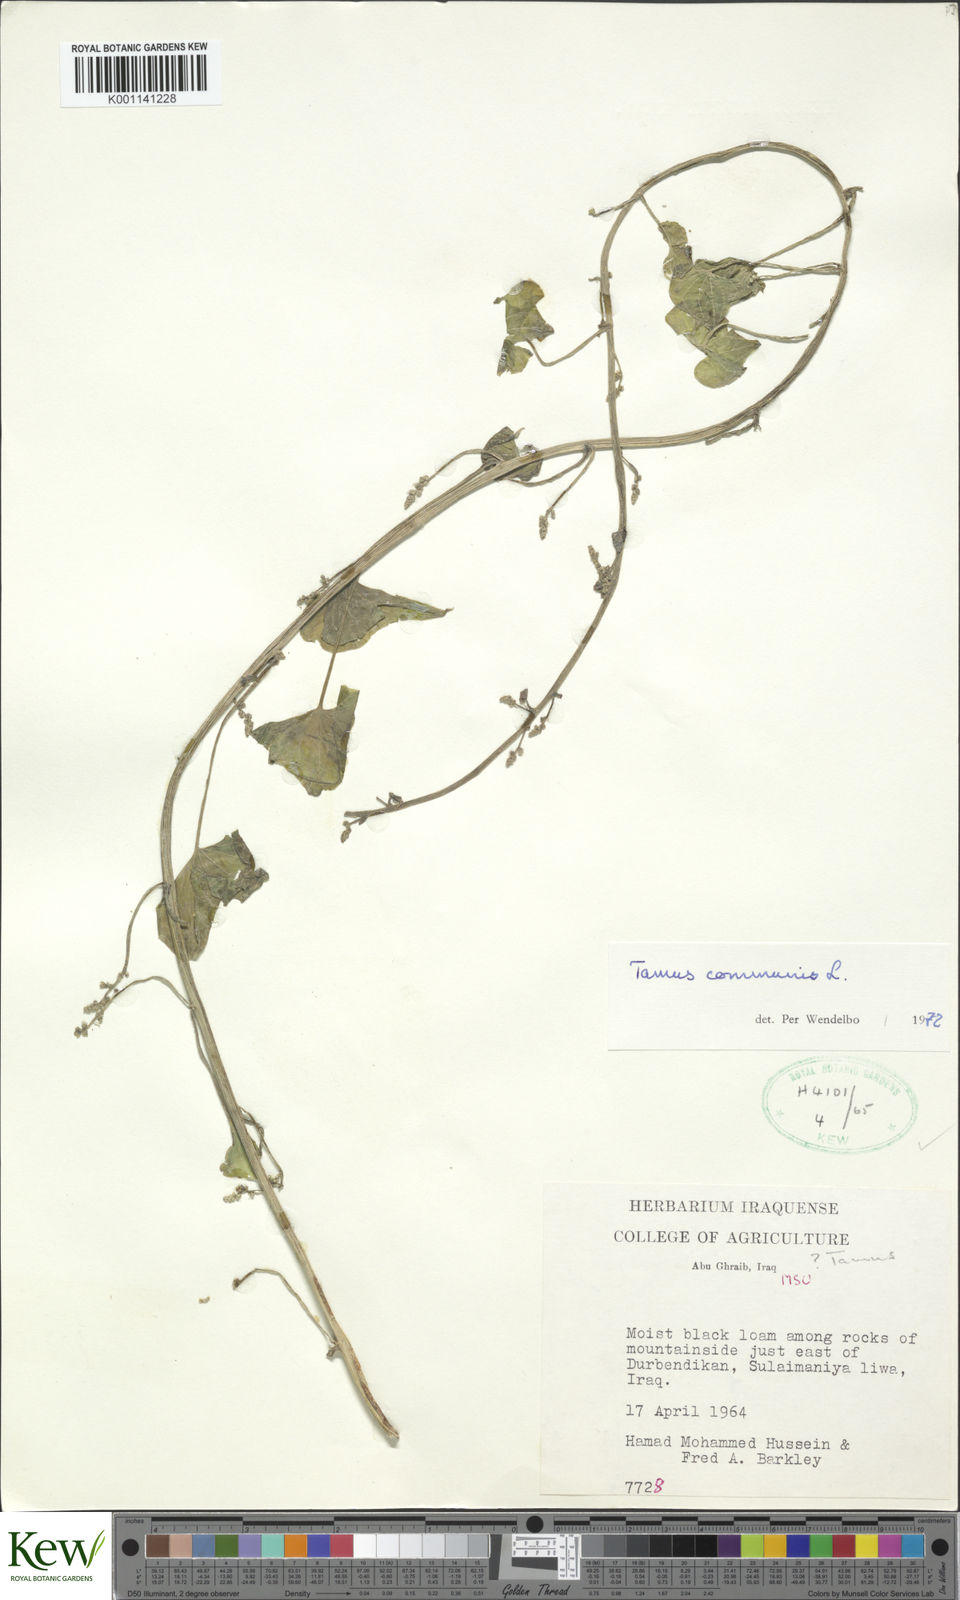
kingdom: Plantae
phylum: Tracheophyta
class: Liliopsida
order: Dioscoreales
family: Dioscoreaceae
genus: Dioscorea
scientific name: Dioscorea communis
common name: Black-bindweed
